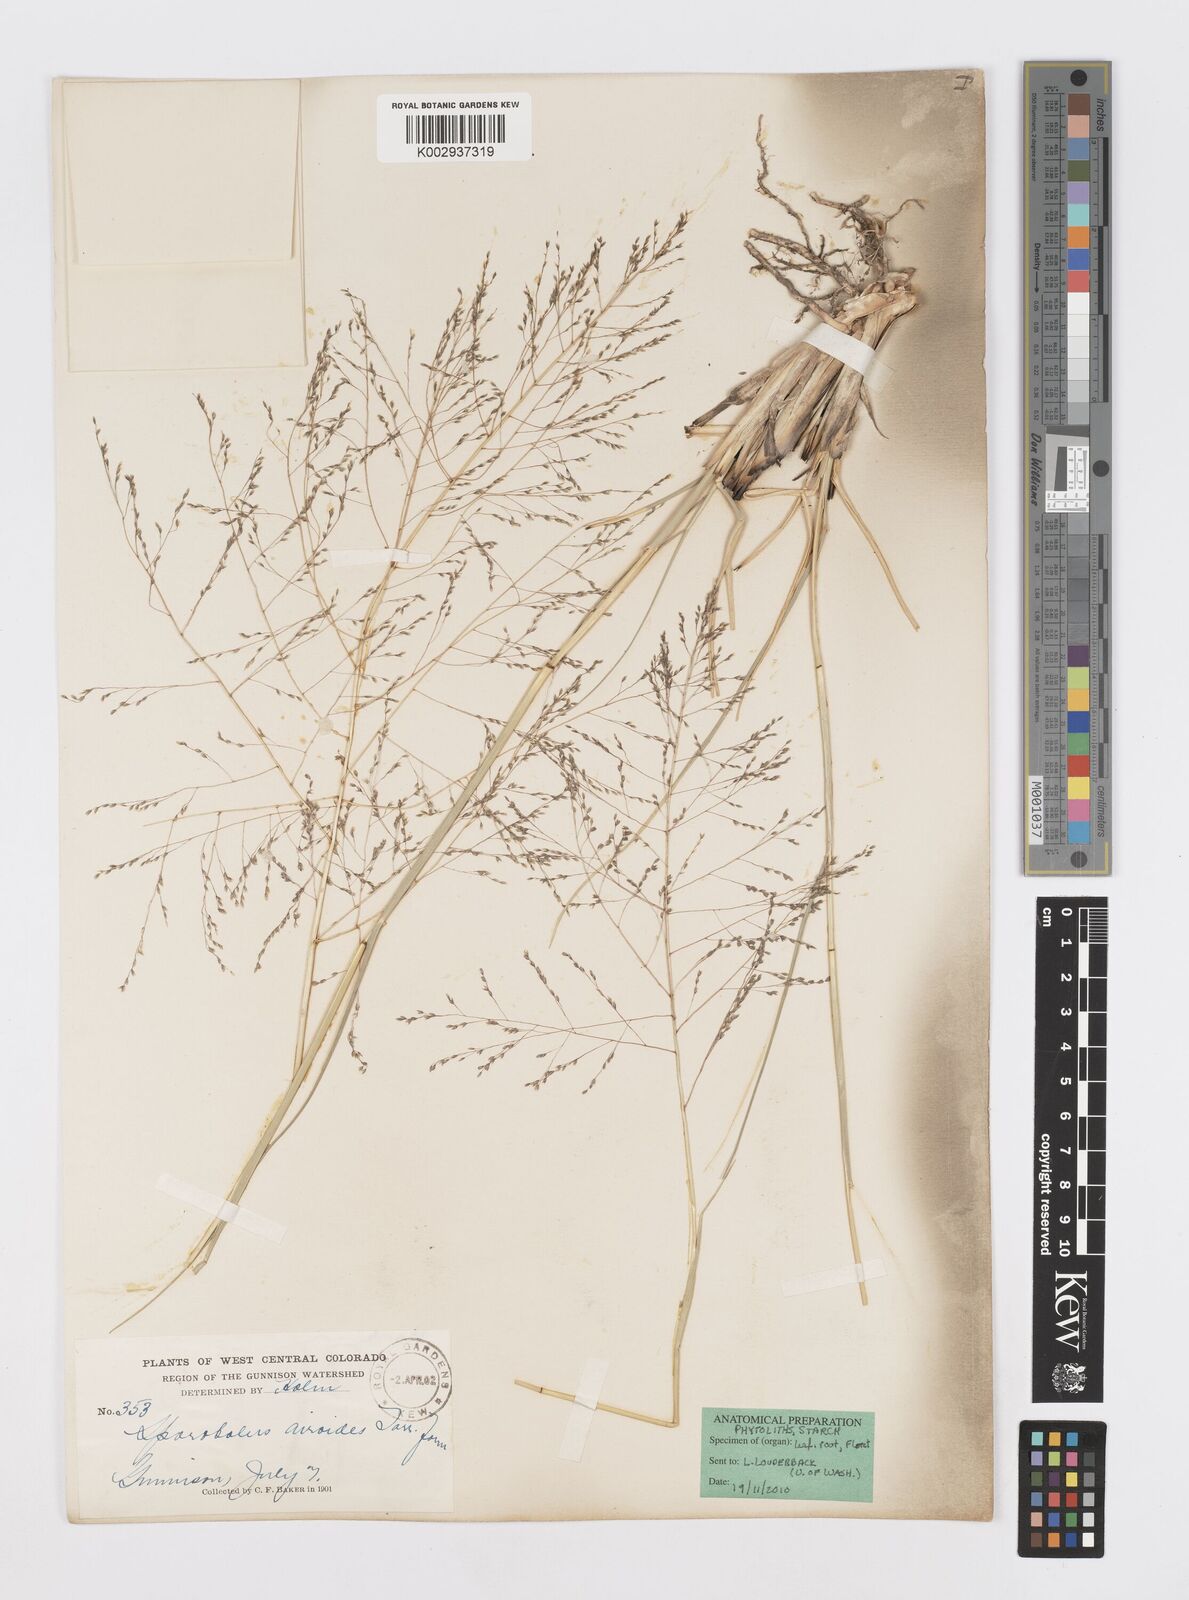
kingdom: Plantae
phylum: Tracheophyta
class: Liliopsida
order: Poales
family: Poaceae
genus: Sporobolus
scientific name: Sporobolus airoides
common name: Alkali sacaton
